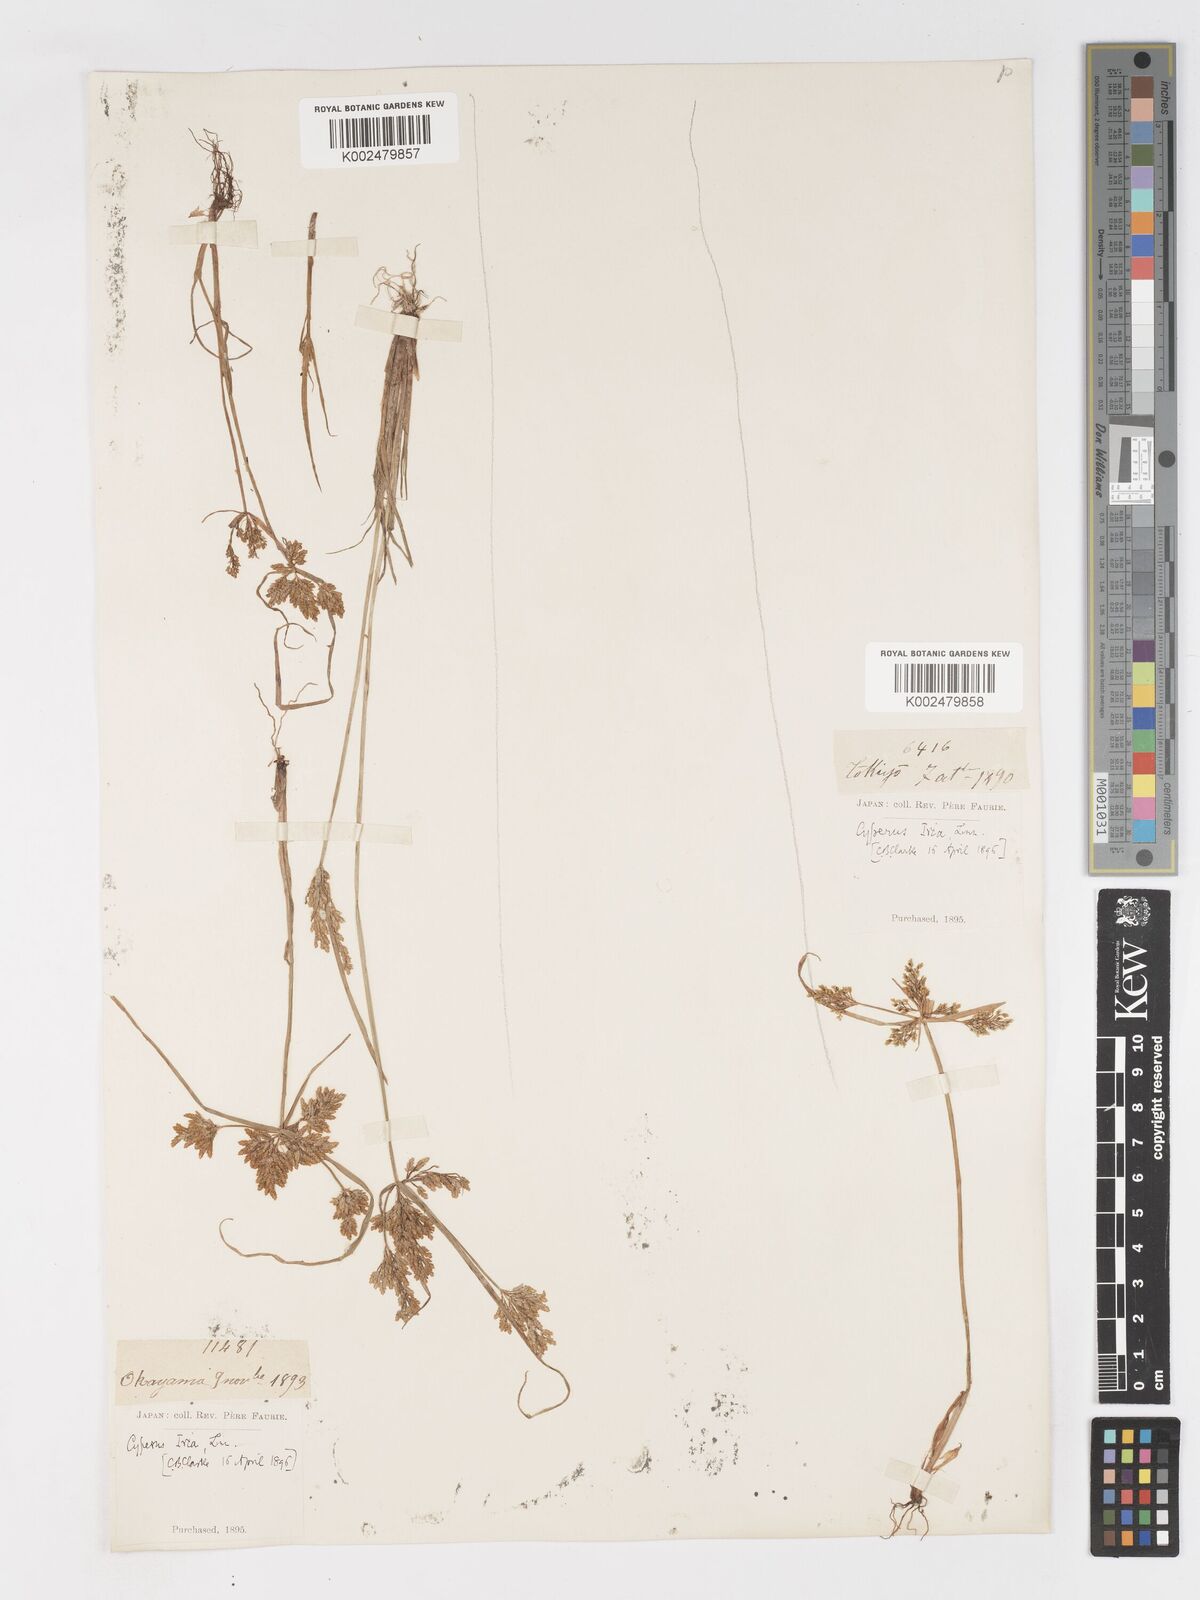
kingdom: Plantae
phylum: Tracheophyta
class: Liliopsida
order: Poales
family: Cyperaceae
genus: Cyperus
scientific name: Cyperus iria
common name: Ricefield flatsedge
